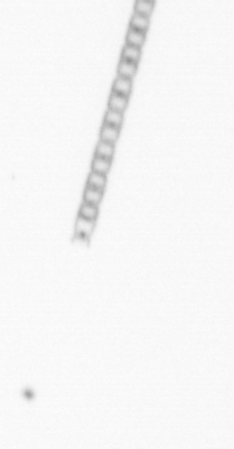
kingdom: Chromista
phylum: Ochrophyta
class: Bacillariophyceae
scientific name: Bacillariophyceae
